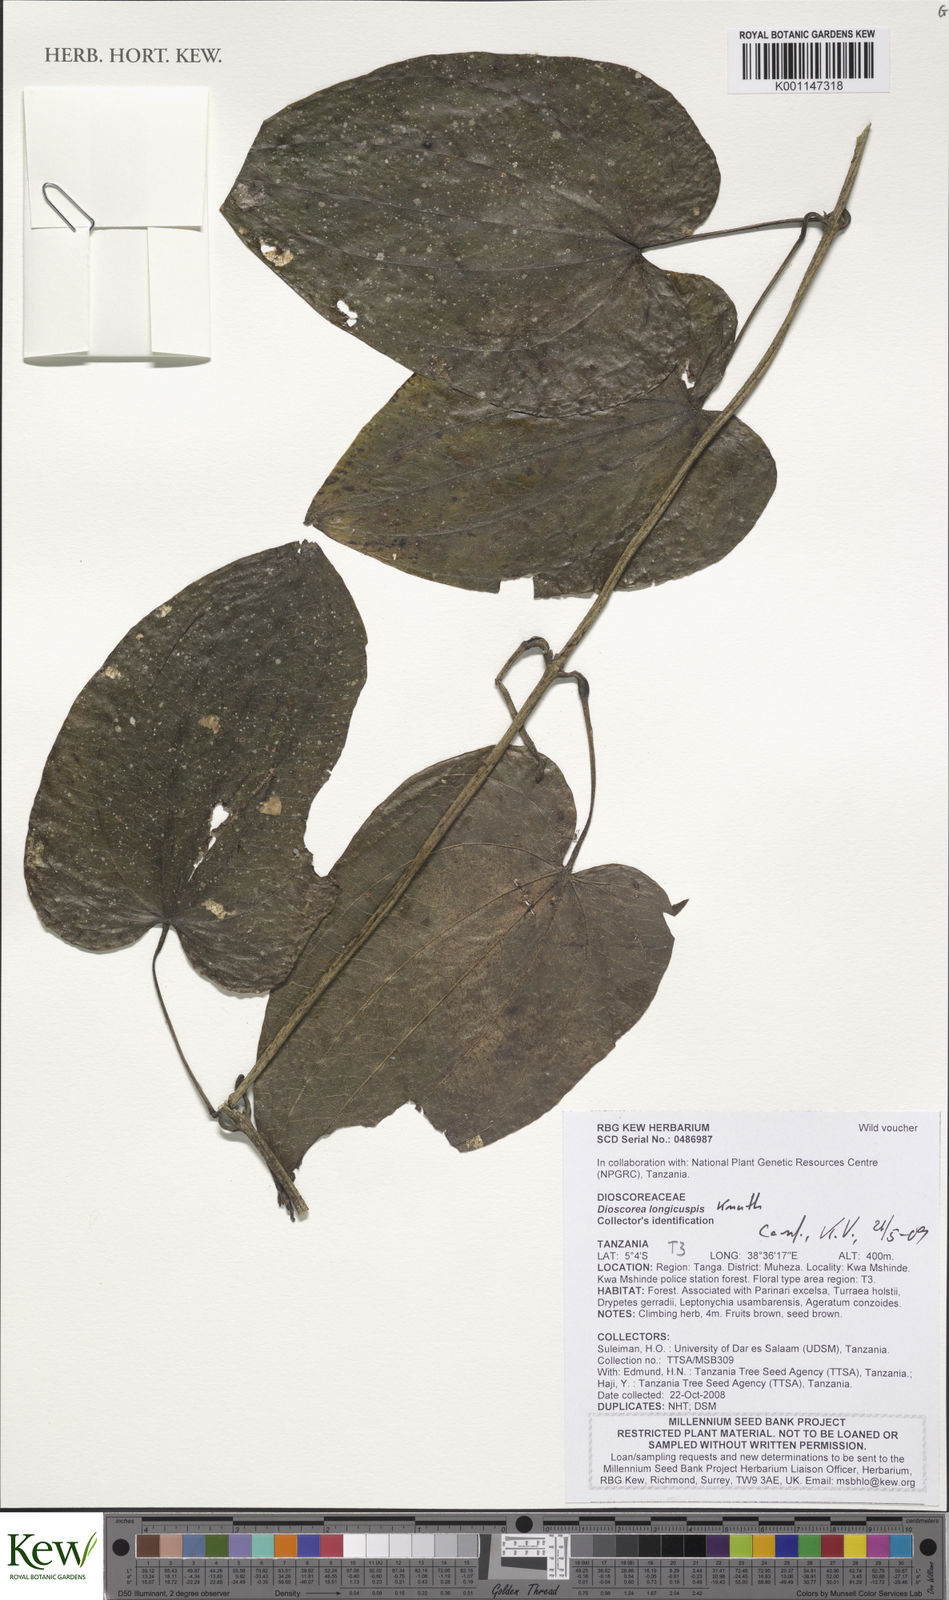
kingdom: Plantae
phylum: Tracheophyta
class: Liliopsida
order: Dioscoreales
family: Dioscoreaceae
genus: Dioscorea
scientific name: Dioscorea longicuspis
